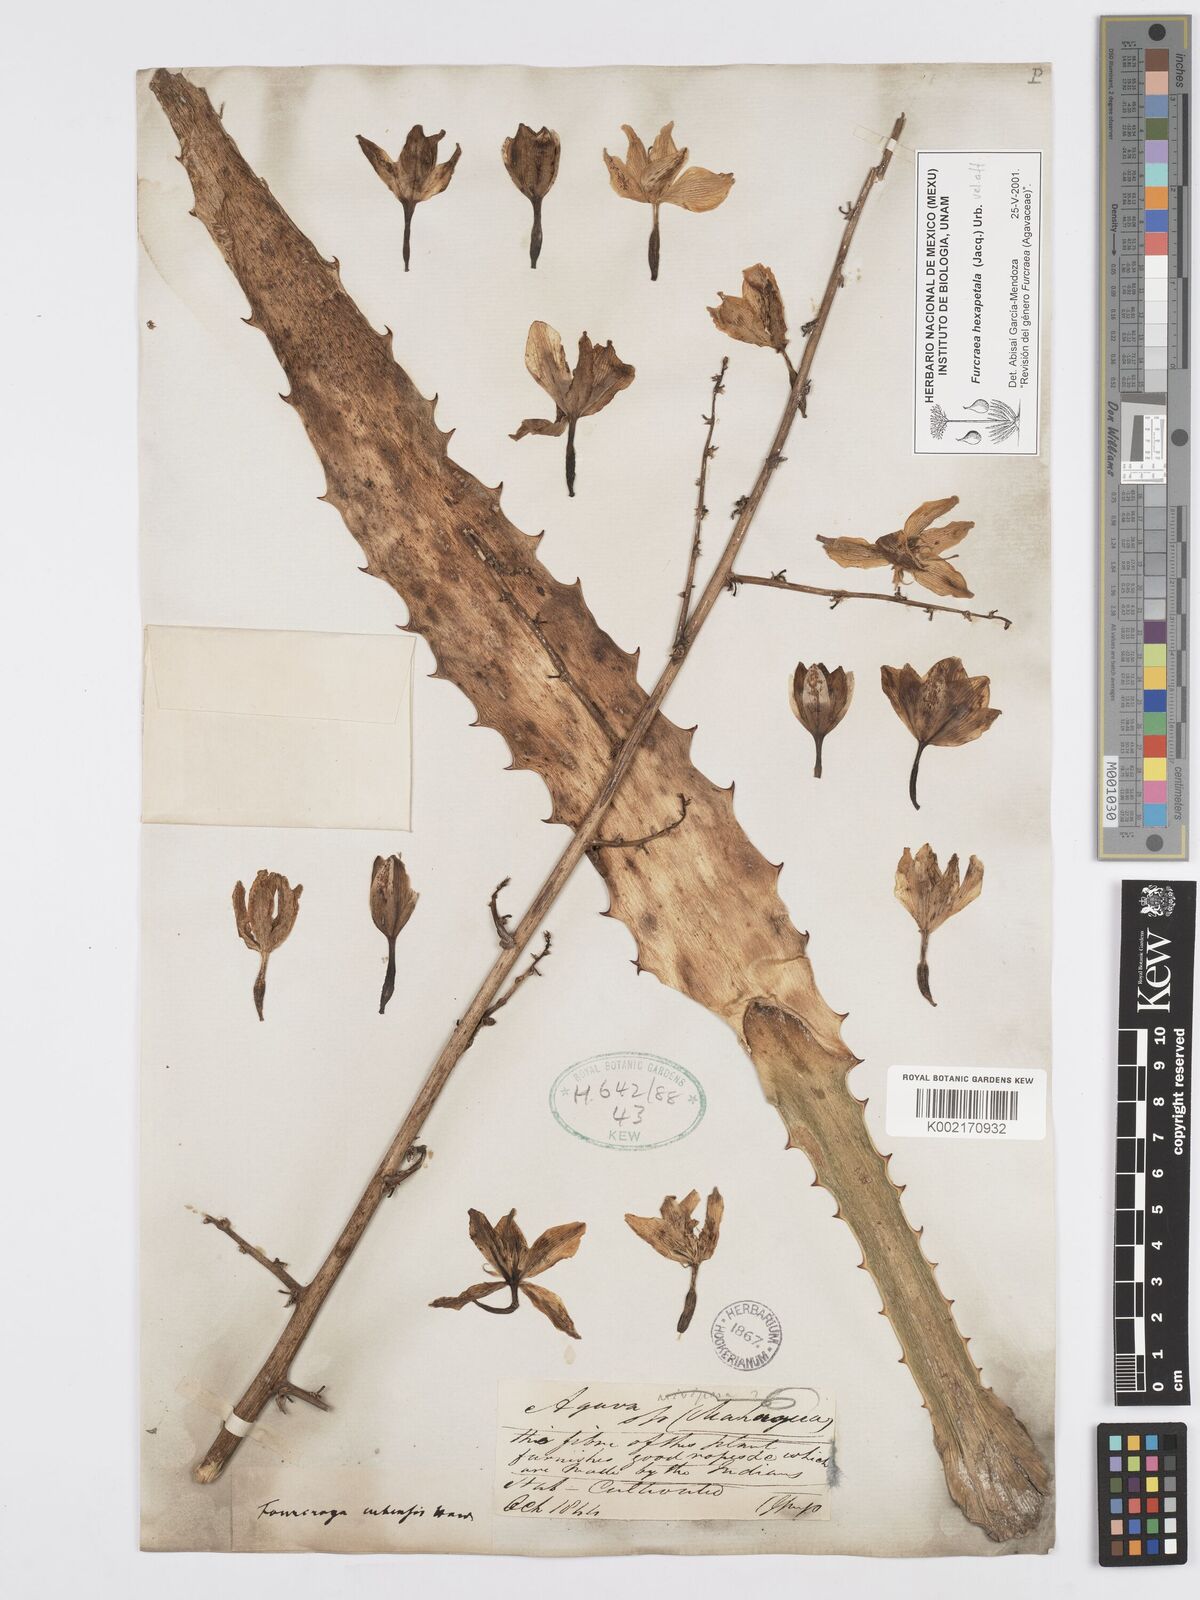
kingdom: Plantae
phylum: Tracheophyta
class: Liliopsida
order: Asparagales
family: Asparagaceae
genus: Furcraea
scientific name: Furcraea hexapetala
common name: Cuban-hemp
